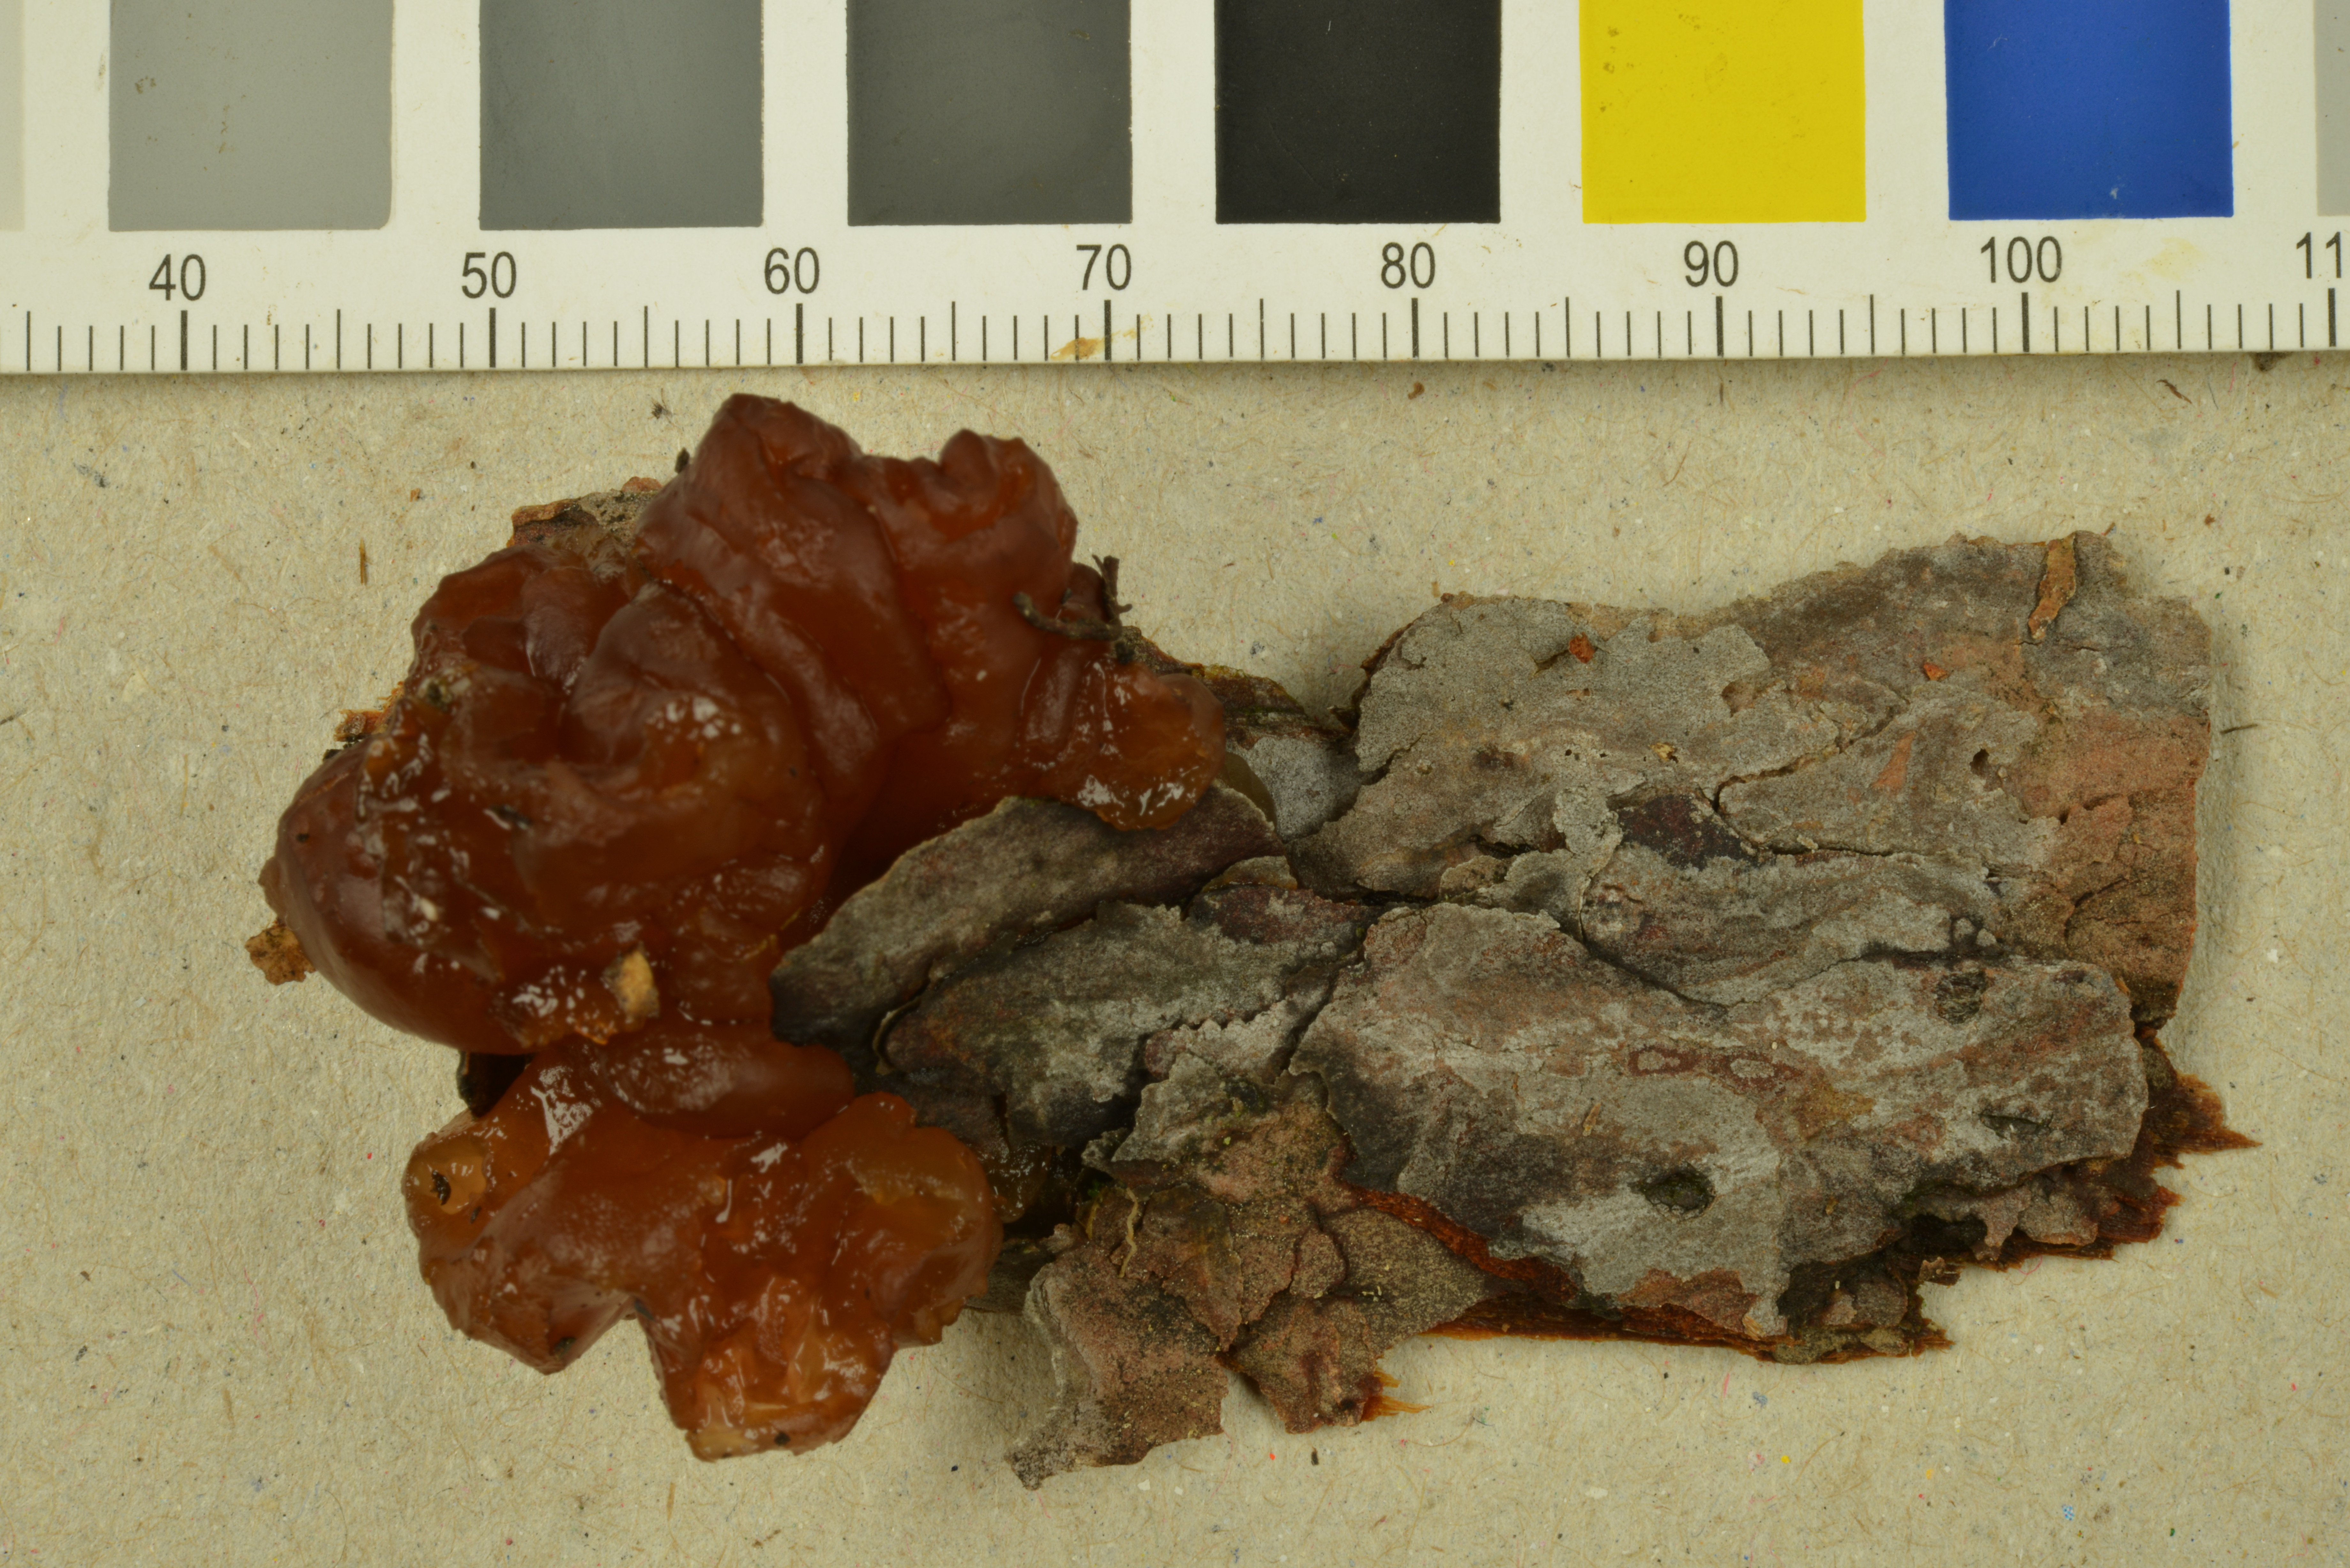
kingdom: Fungi
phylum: Basidiomycota
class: Agaricomycetes
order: Auriculariales
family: Auriculariaceae
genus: Exidia
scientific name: Exidia saccharina
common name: Pine jelly
